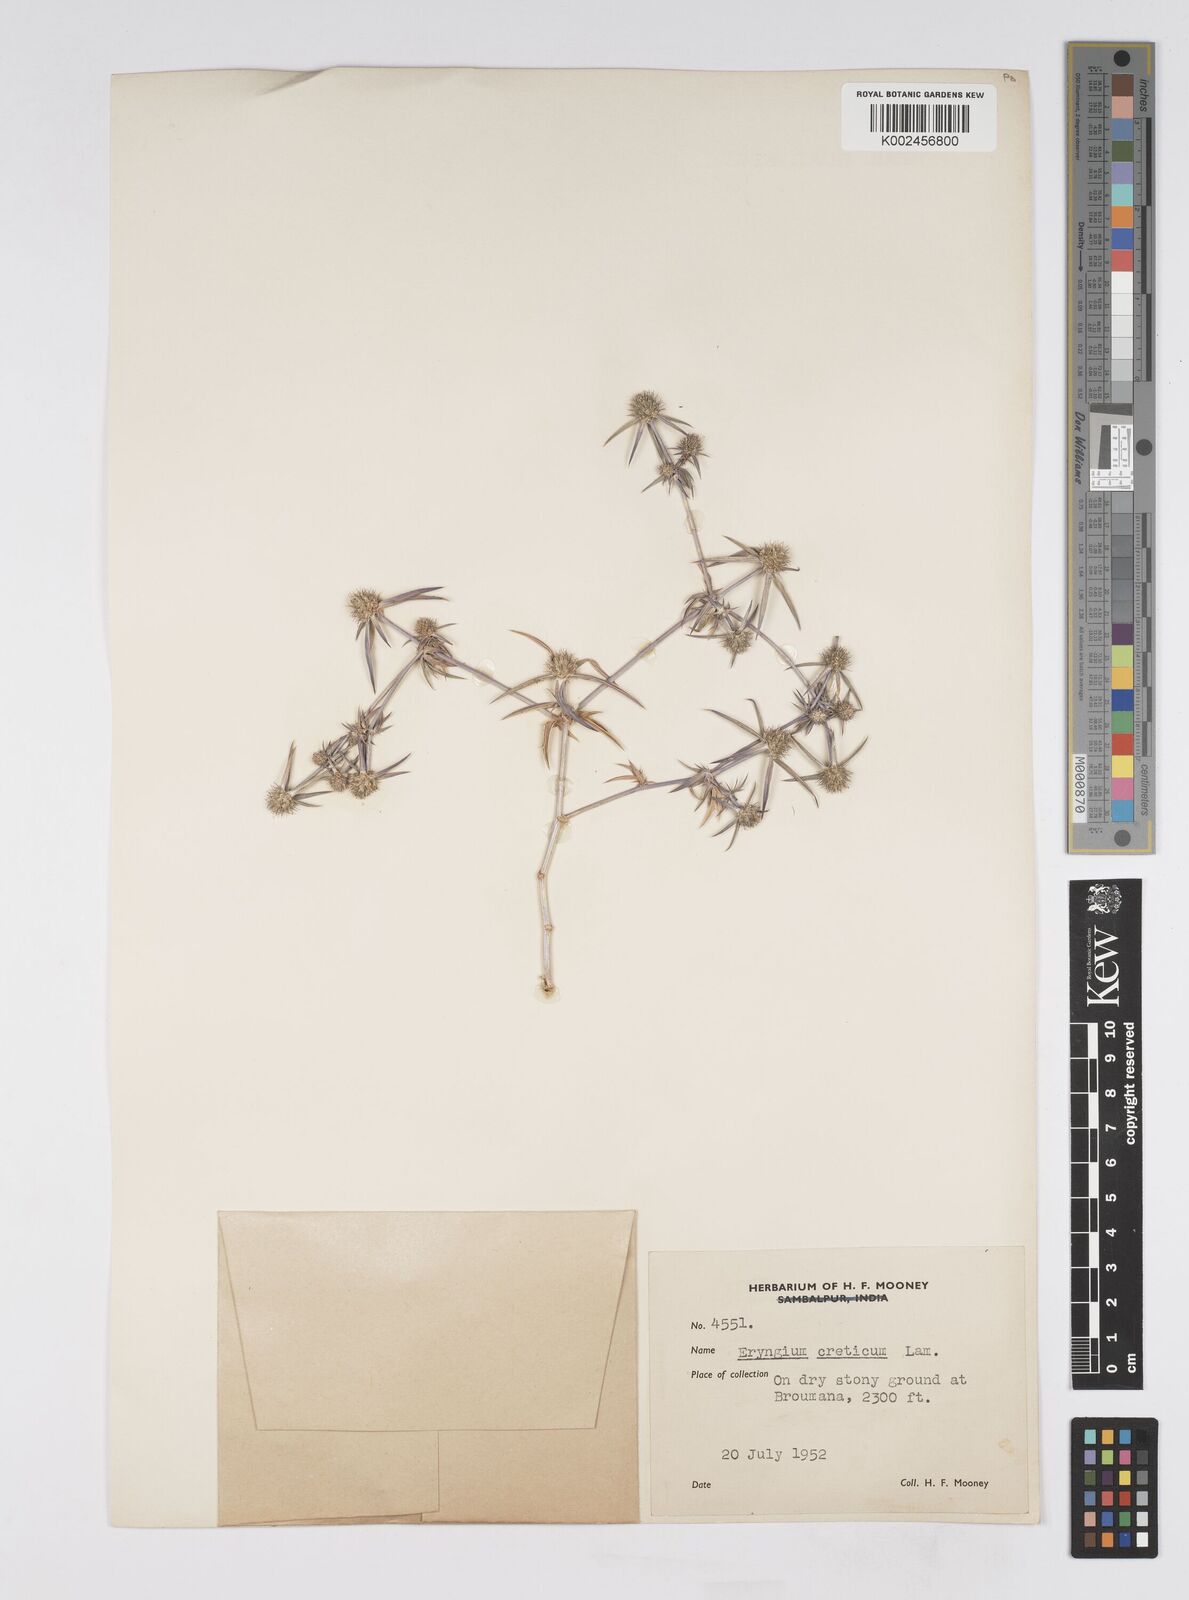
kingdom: Plantae
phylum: Tracheophyta
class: Magnoliopsida
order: Apiales
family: Apiaceae
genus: Eryngium
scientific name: Eryngium creticum
